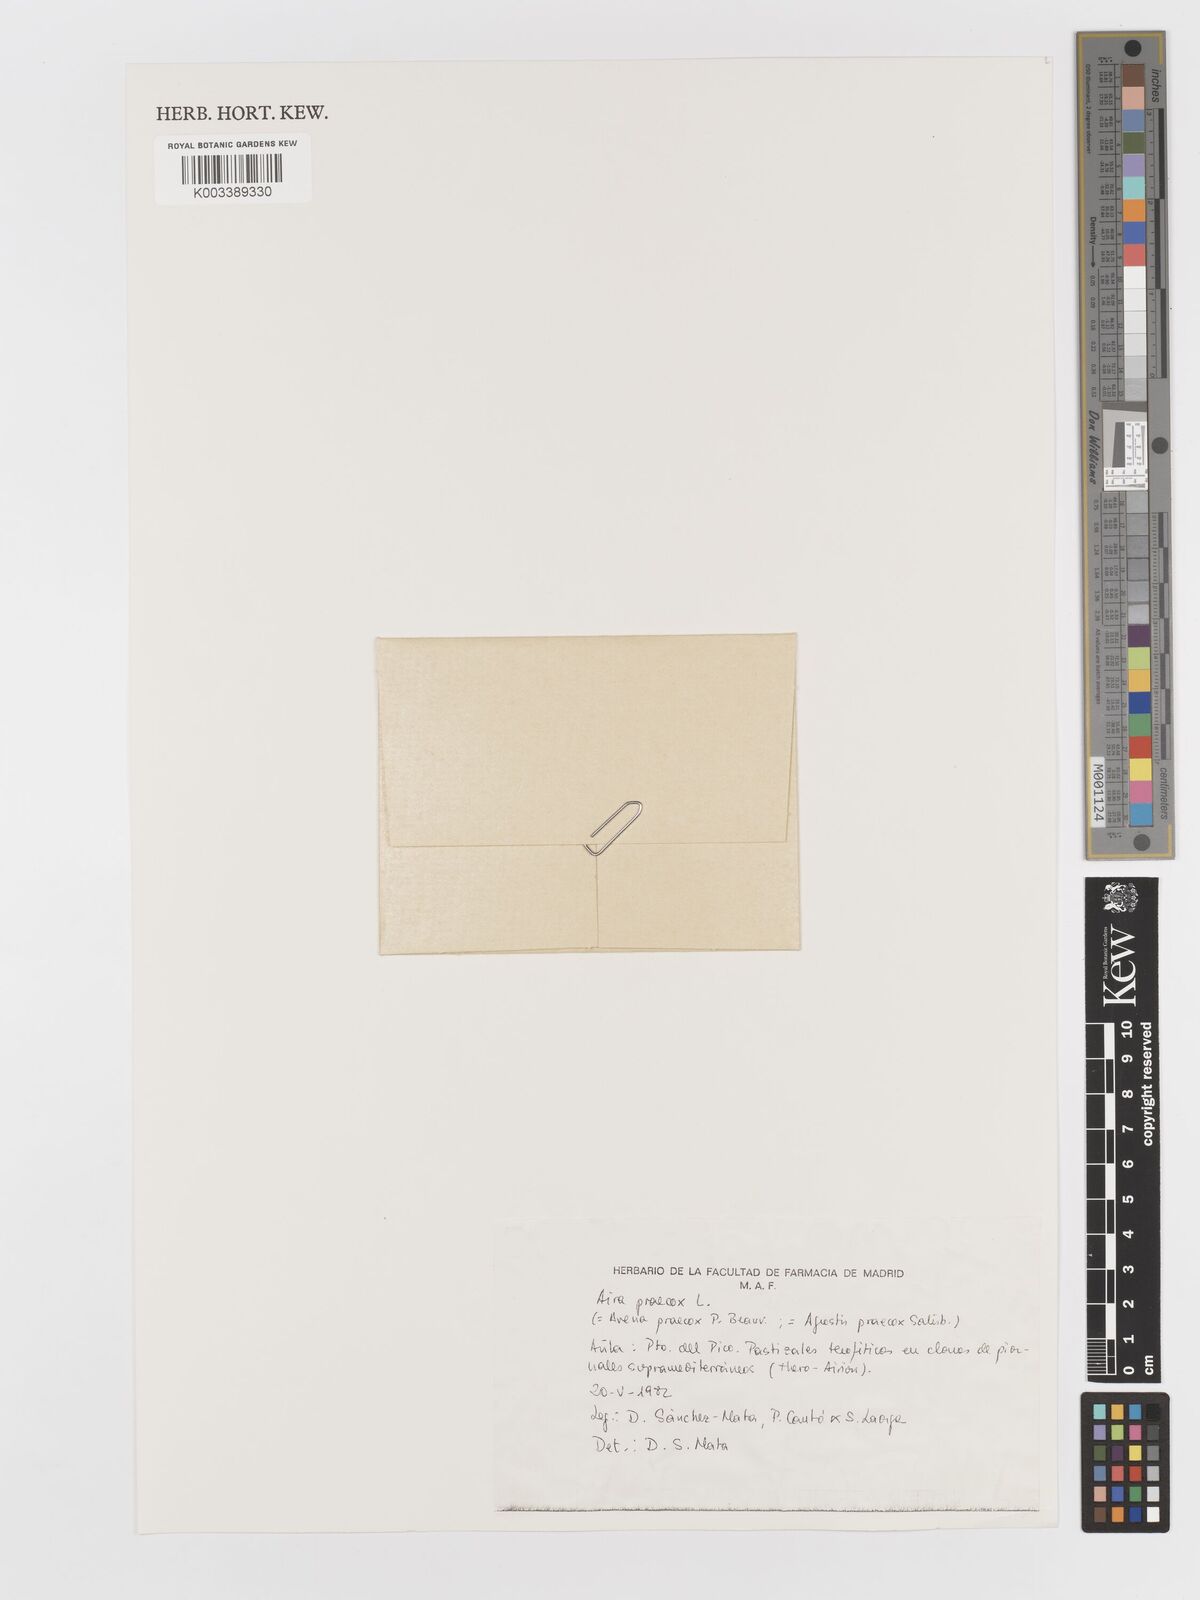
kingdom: Plantae
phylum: Tracheophyta
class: Liliopsida
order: Poales
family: Poaceae
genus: Aira
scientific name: Aira
